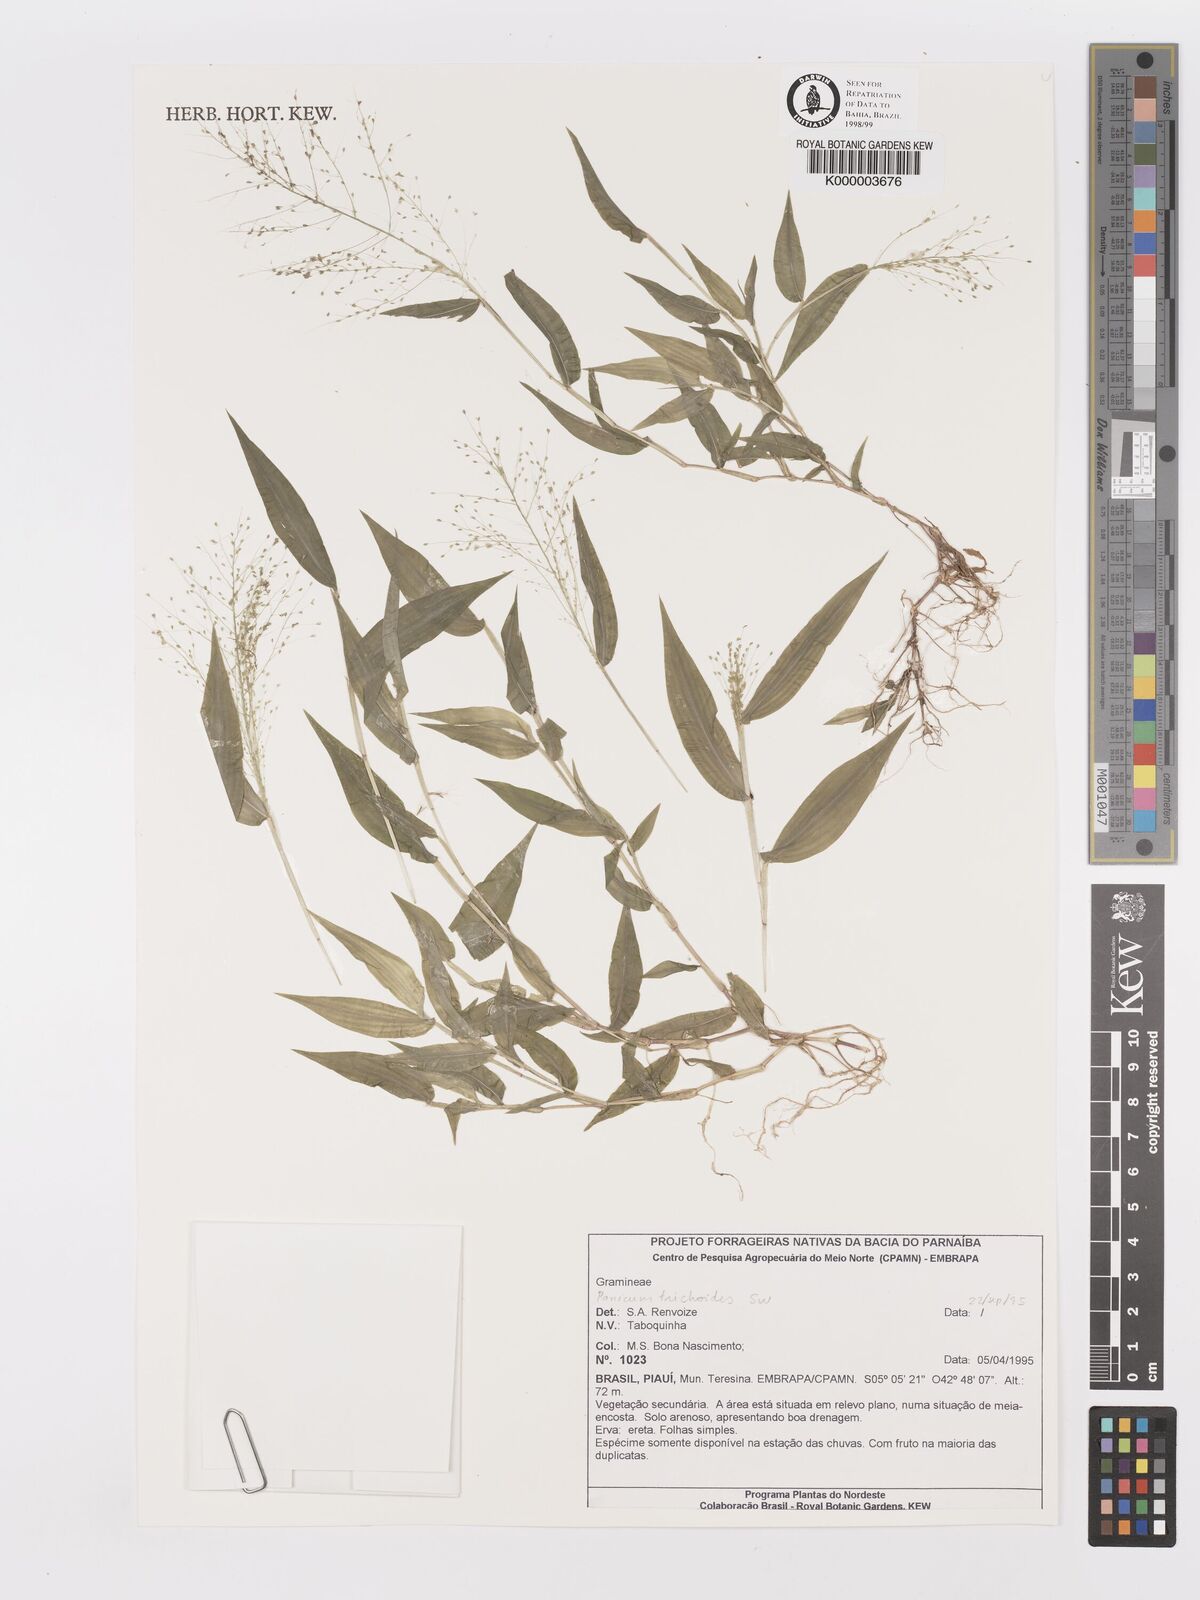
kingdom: Plantae
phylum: Tracheophyta
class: Liliopsida
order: Poales
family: Poaceae
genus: Panicum
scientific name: Panicum
